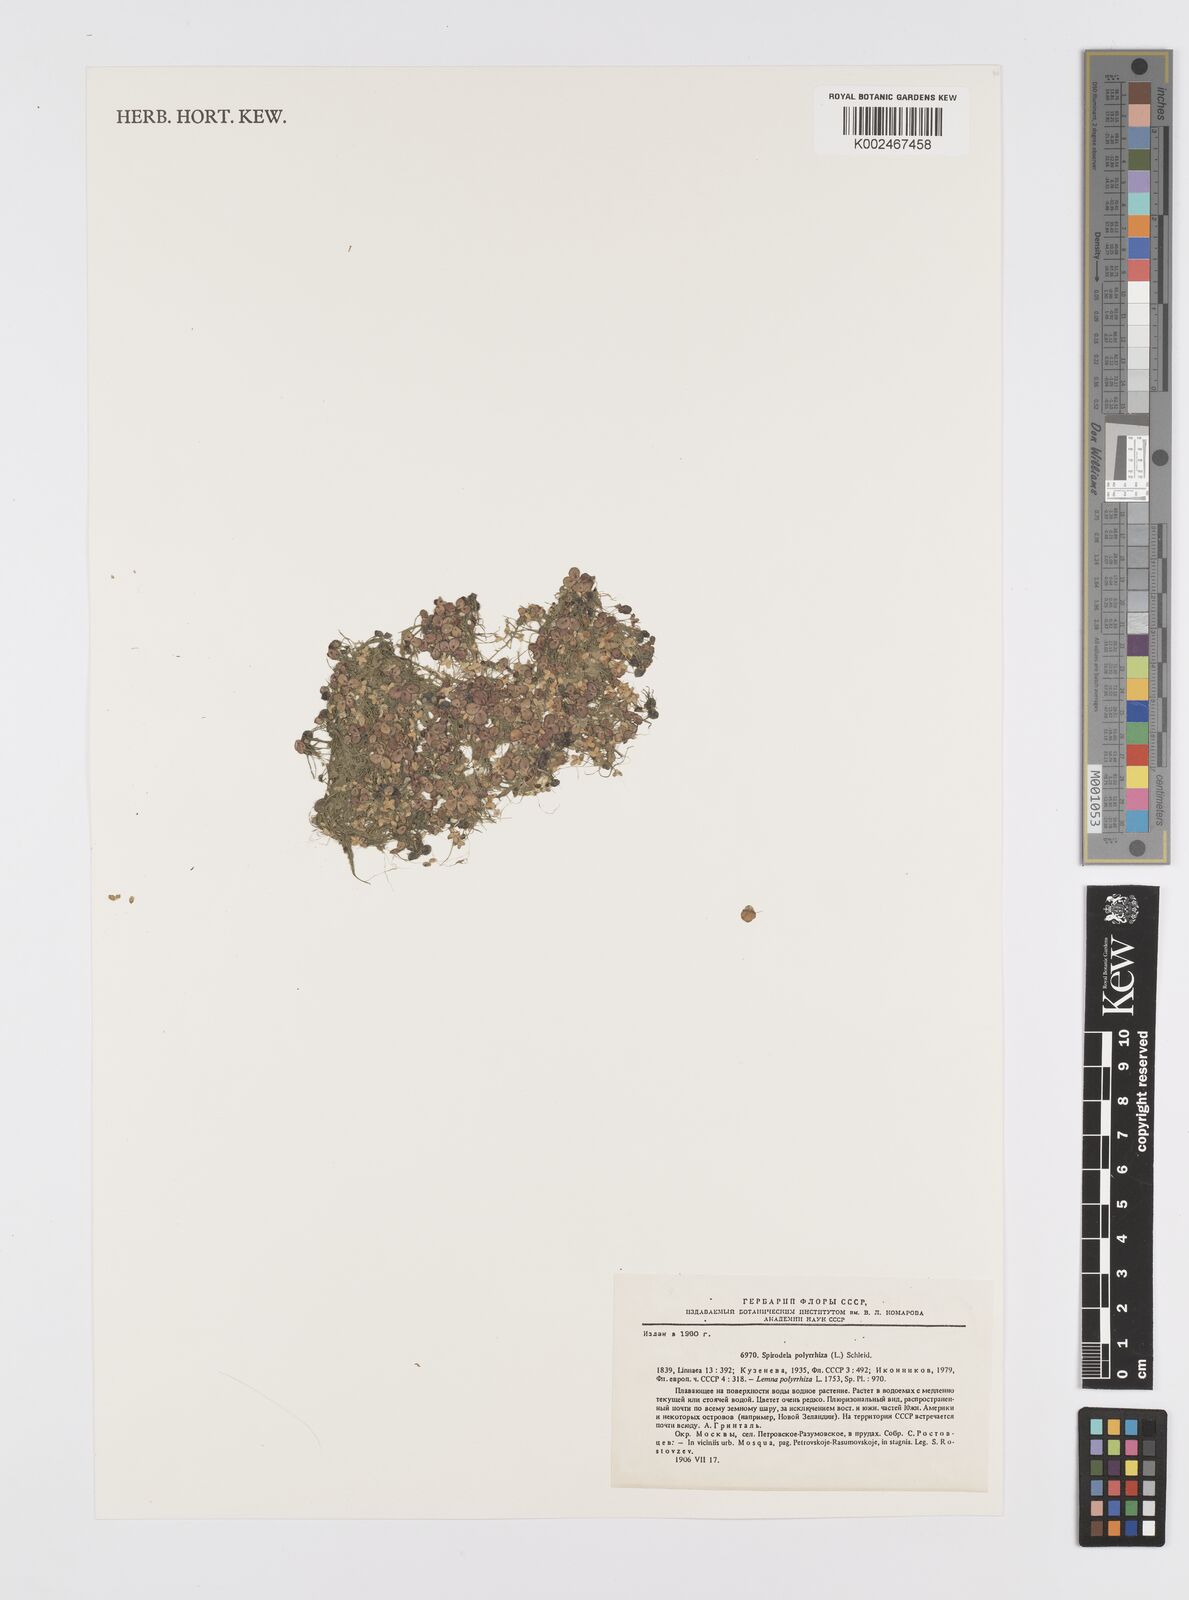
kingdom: Plantae
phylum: Tracheophyta
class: Liliopsida
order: Alismatales
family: Araceae
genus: Spirodela
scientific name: Spirodela polyrhiza
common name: Great duckweed
